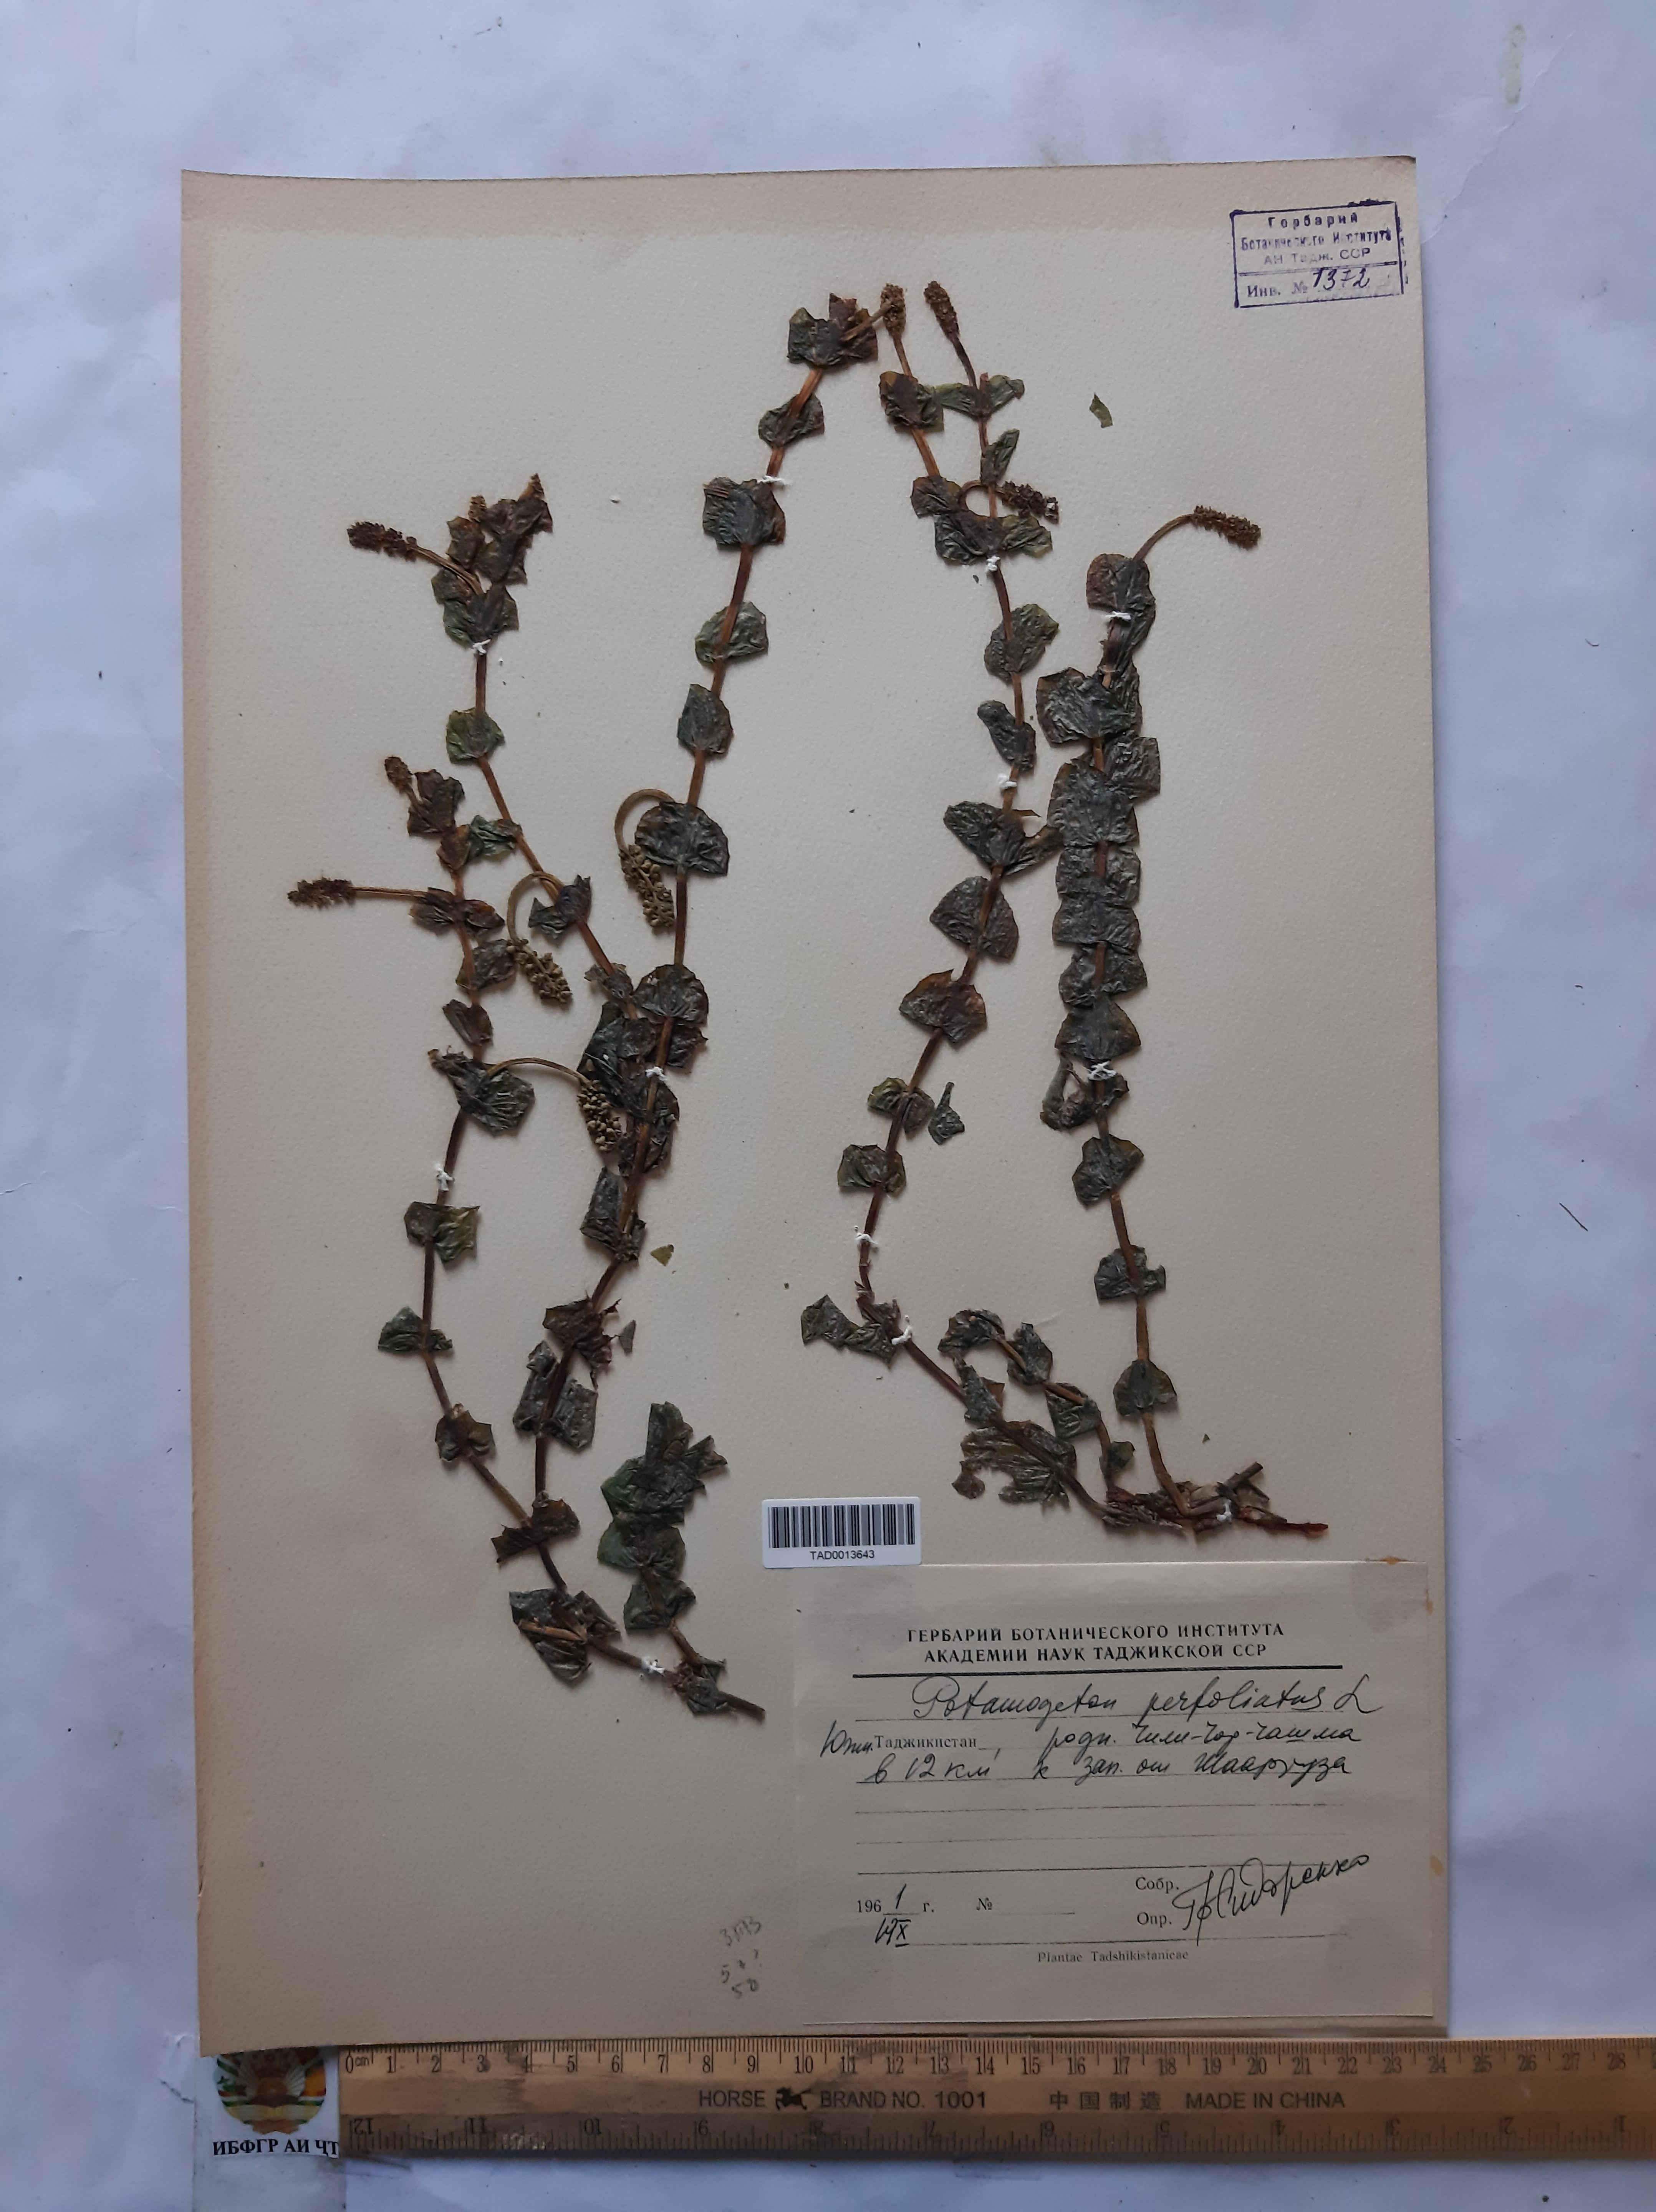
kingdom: Plantae
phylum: Tracheophyta
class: Liliopsida
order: Alismatales
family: Potamogetonaceae
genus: Potamogeton
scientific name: Potamogeton perfoliatus
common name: Perfoliate pondweed
